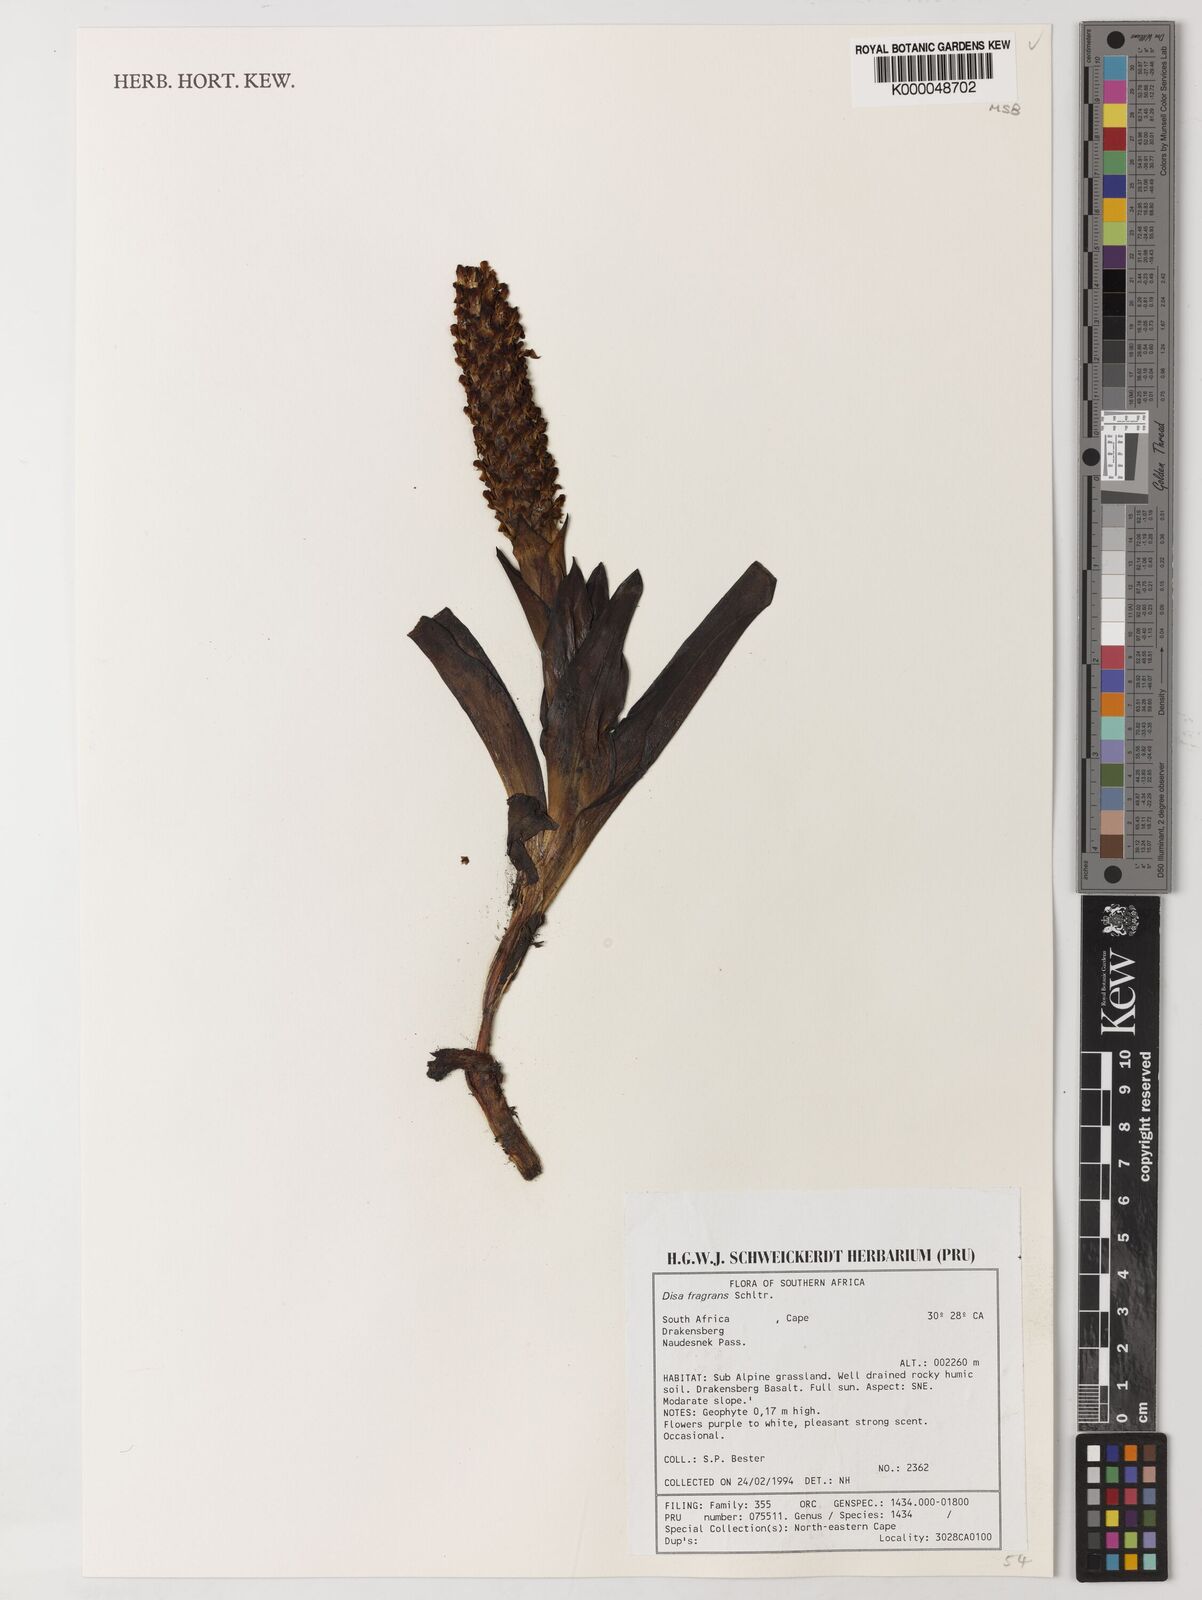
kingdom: Plantae
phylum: Tracheophyta
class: Liliopsida
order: Asparagales
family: Orchidaceae
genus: Disa
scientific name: Disa fragrans
